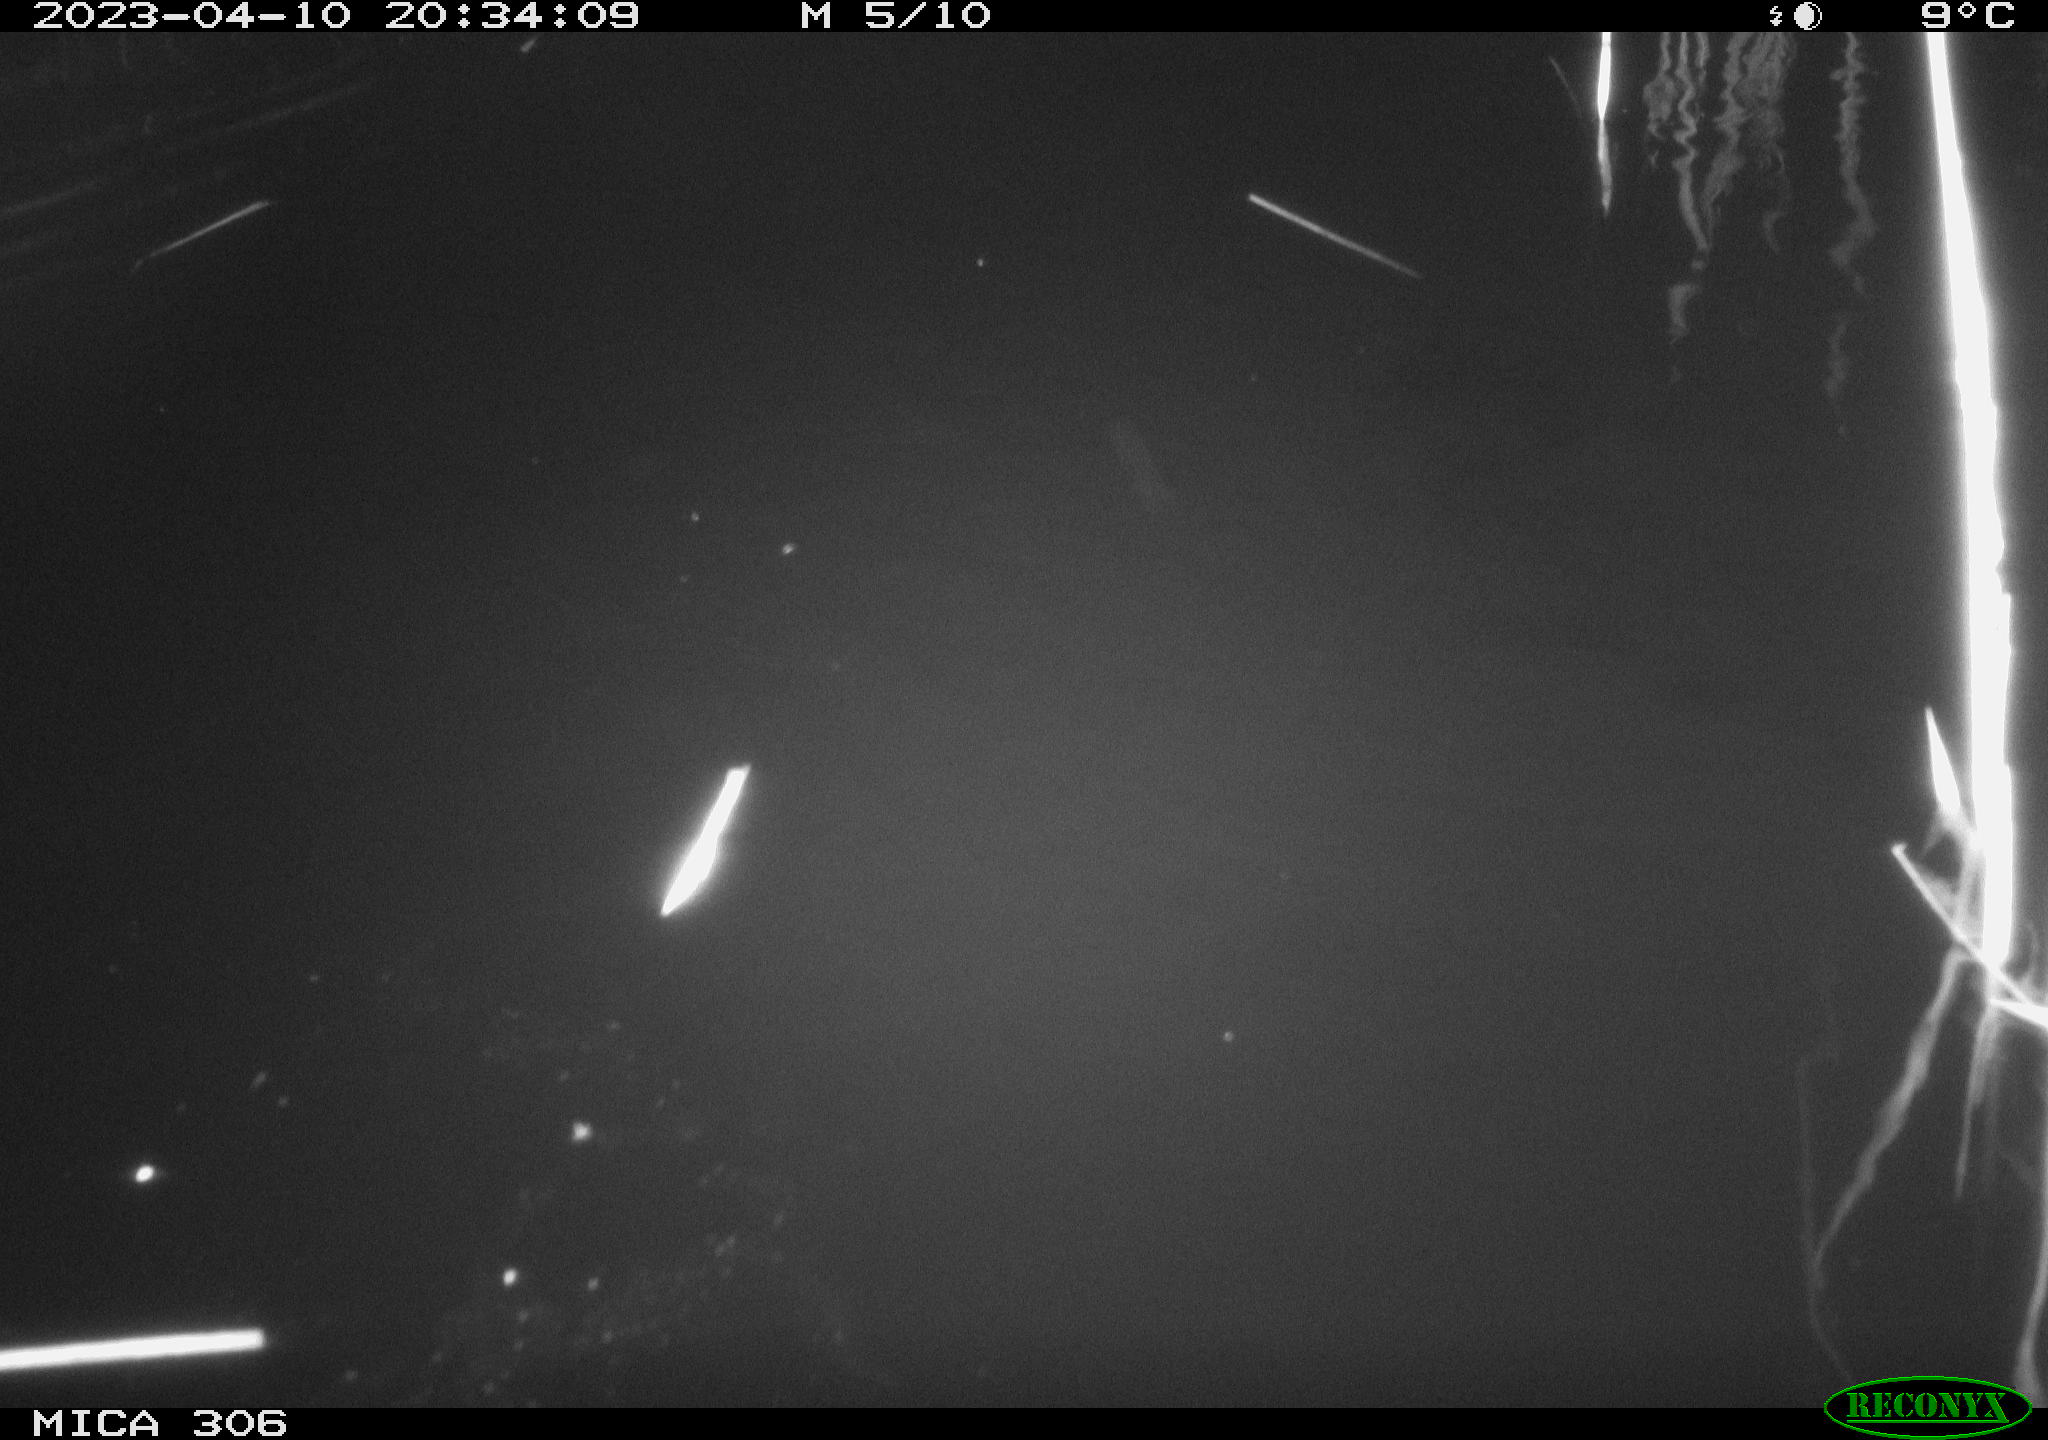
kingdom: Animalia
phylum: Chordata
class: Aves
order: Anseriformes
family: Anatidae
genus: Anas
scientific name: Anas
